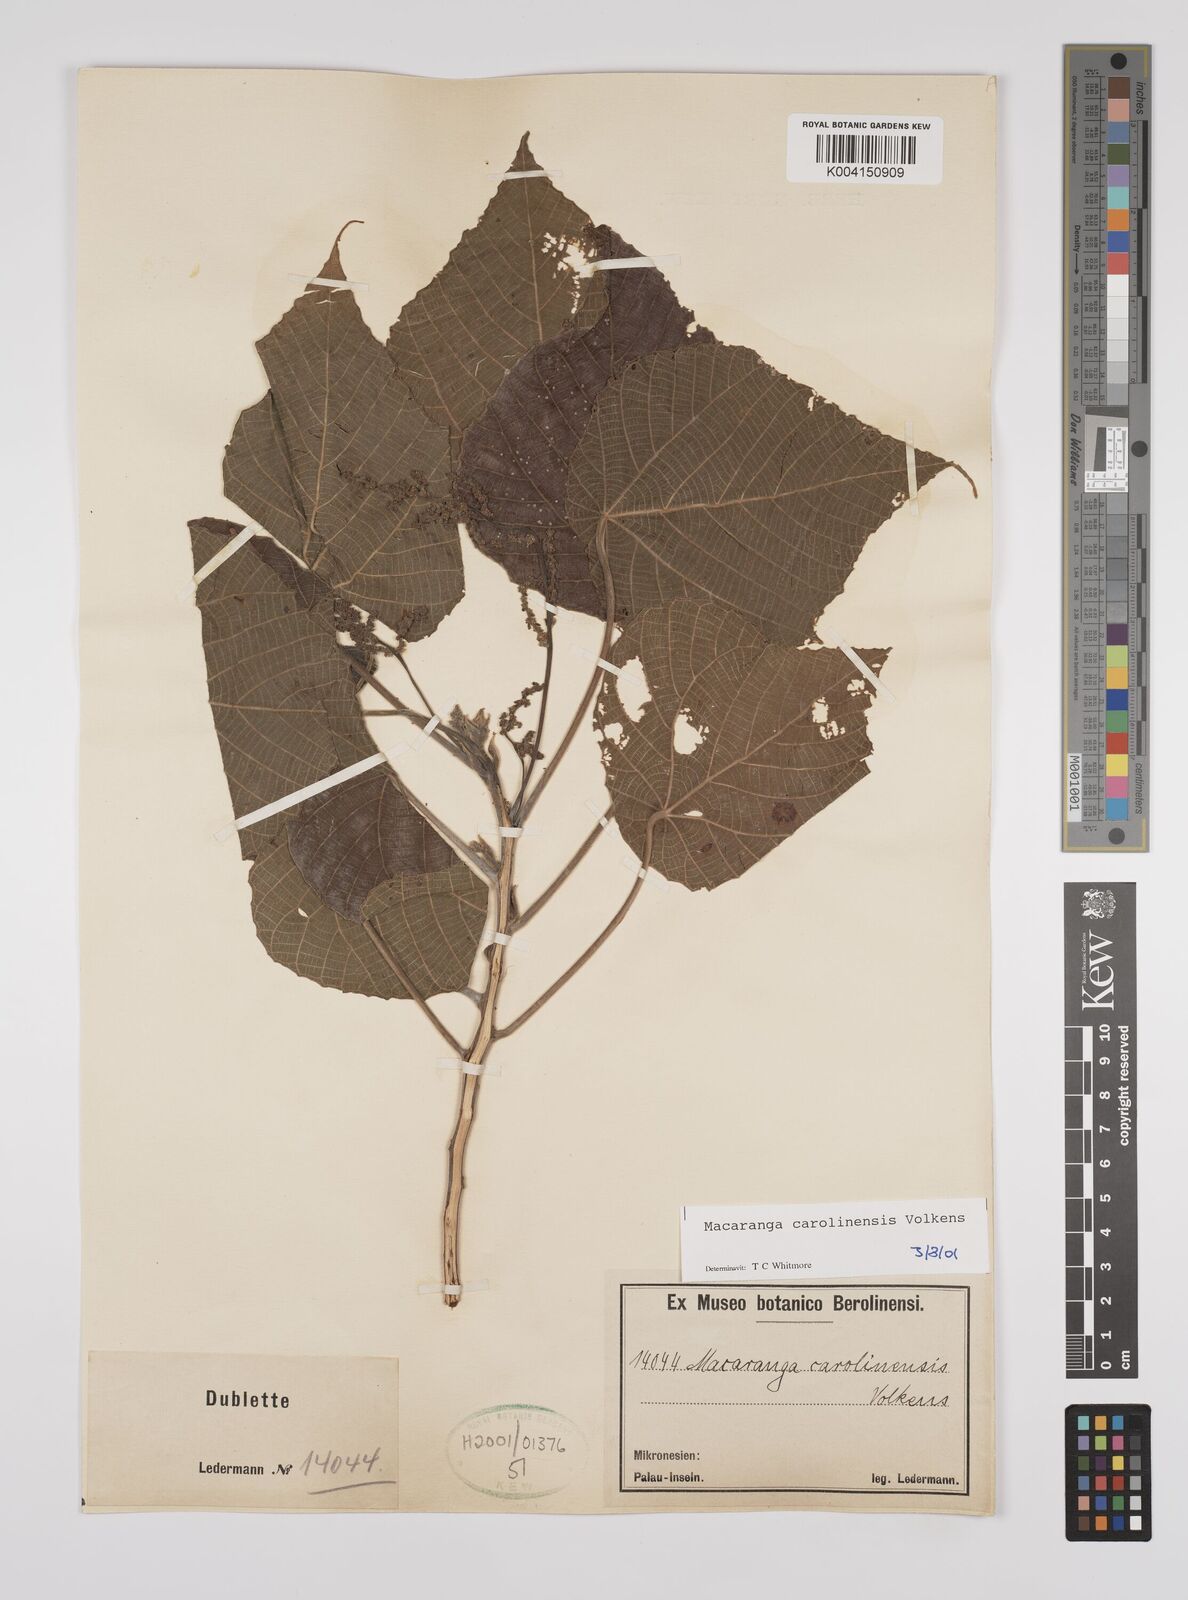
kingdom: Plantae
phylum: Tracheophyta
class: Magnoliopsida
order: Malpighiales
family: Euphorbiaceae
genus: Macaranga
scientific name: Macaranga carolinensis
